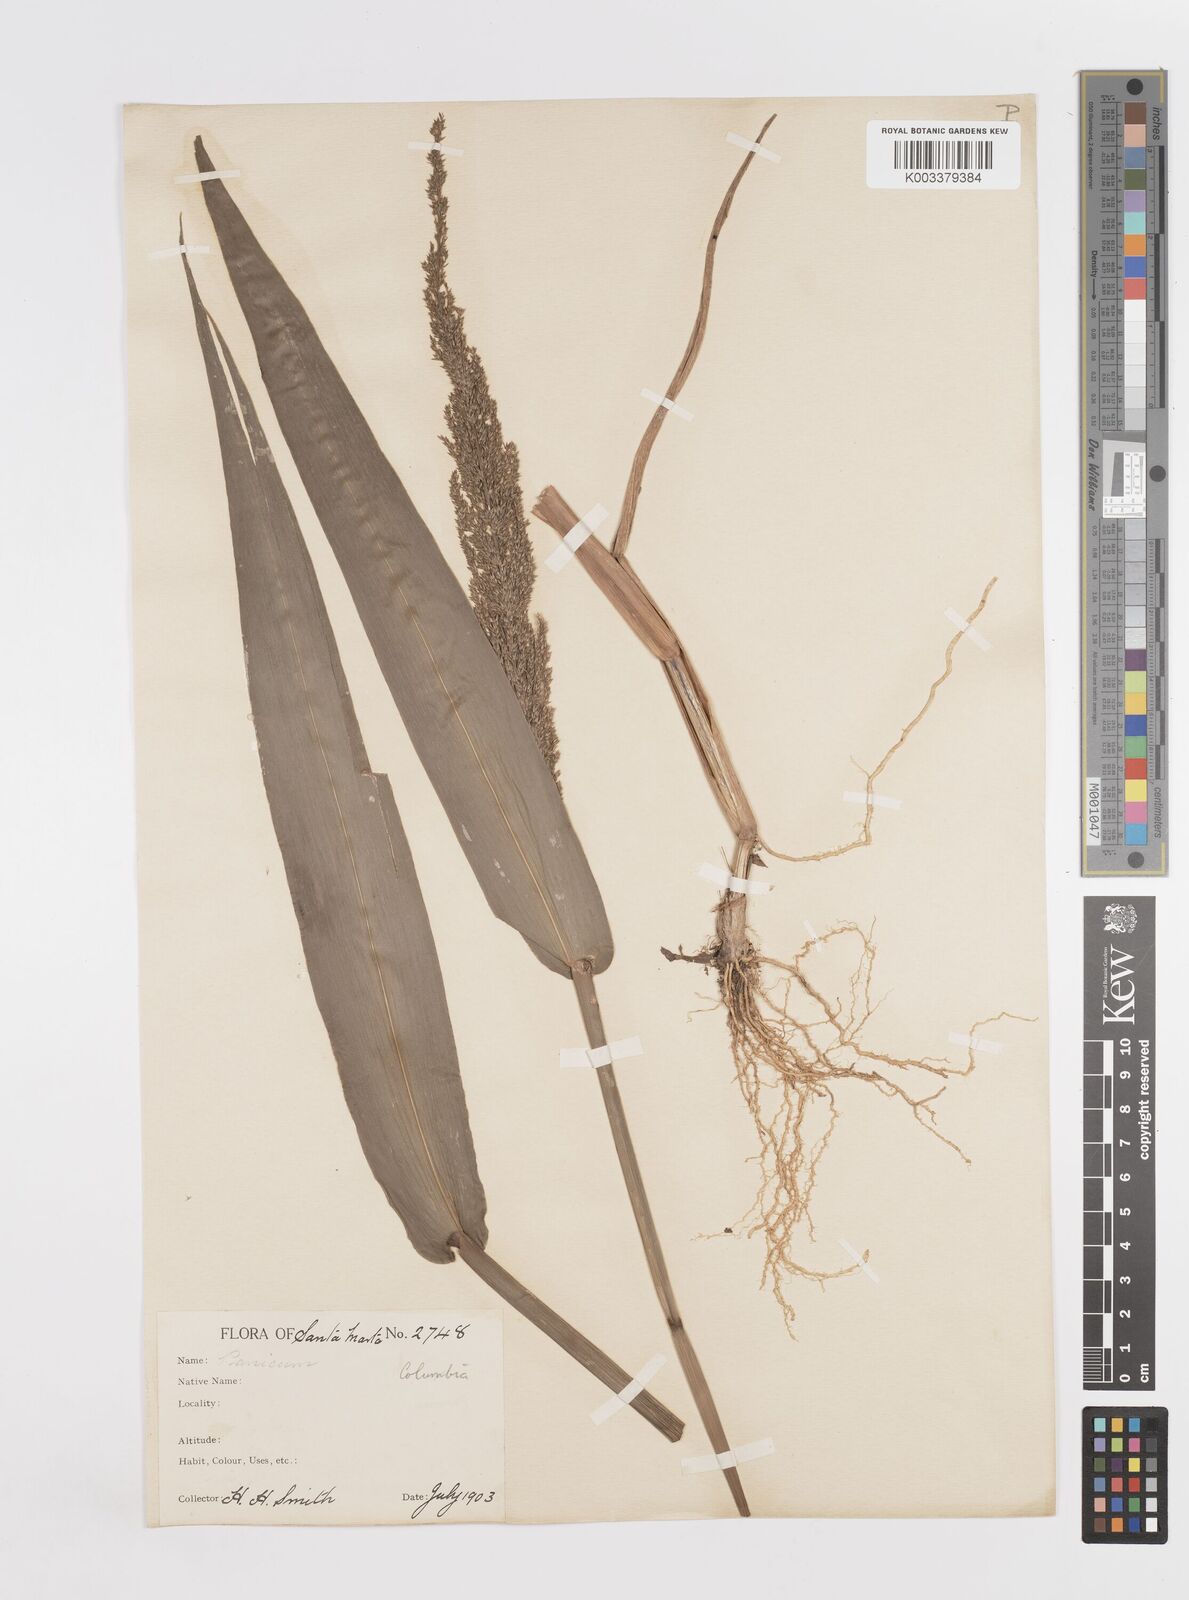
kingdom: Plantae
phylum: Tracheophyta
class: Liliopsida
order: Poales
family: Poaceae
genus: Hymenachne
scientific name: Hymenachne donacifolia
